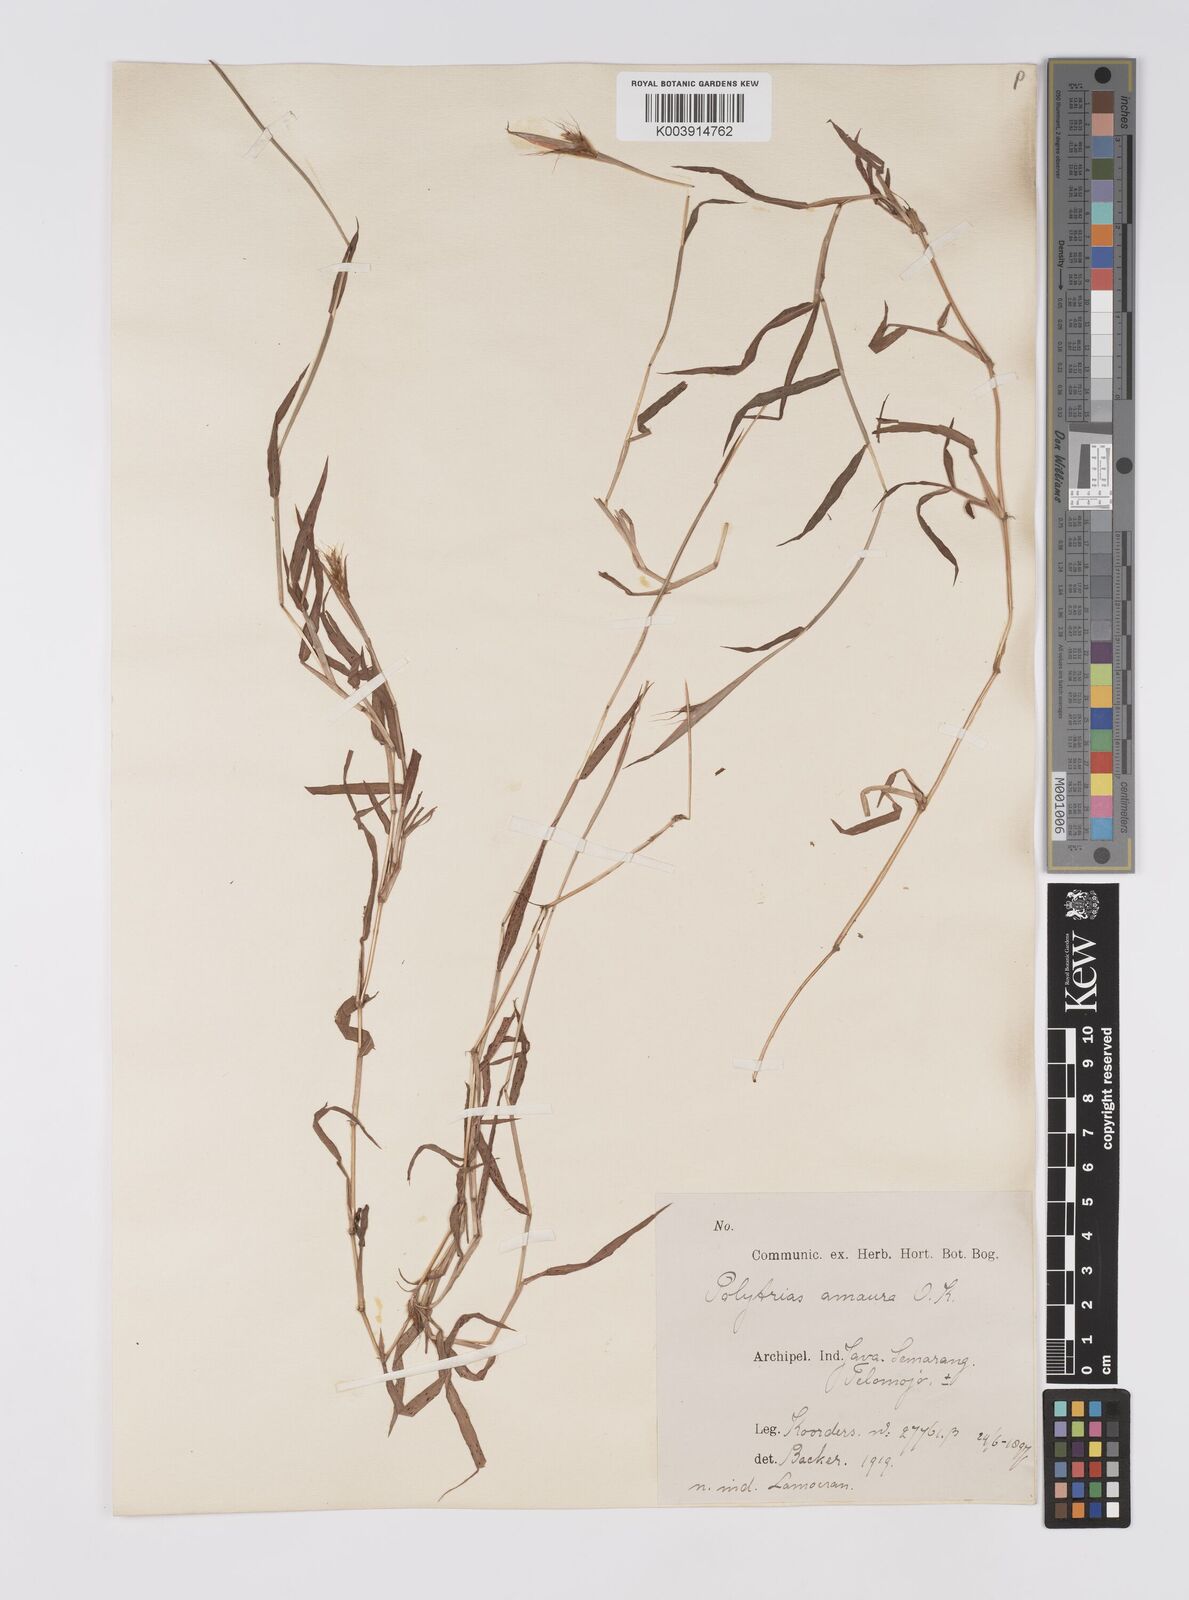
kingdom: Plantae
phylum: Tracheophyta
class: Liliopsida
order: Poales
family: Poaceae
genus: Polytrias
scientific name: Polytrias
